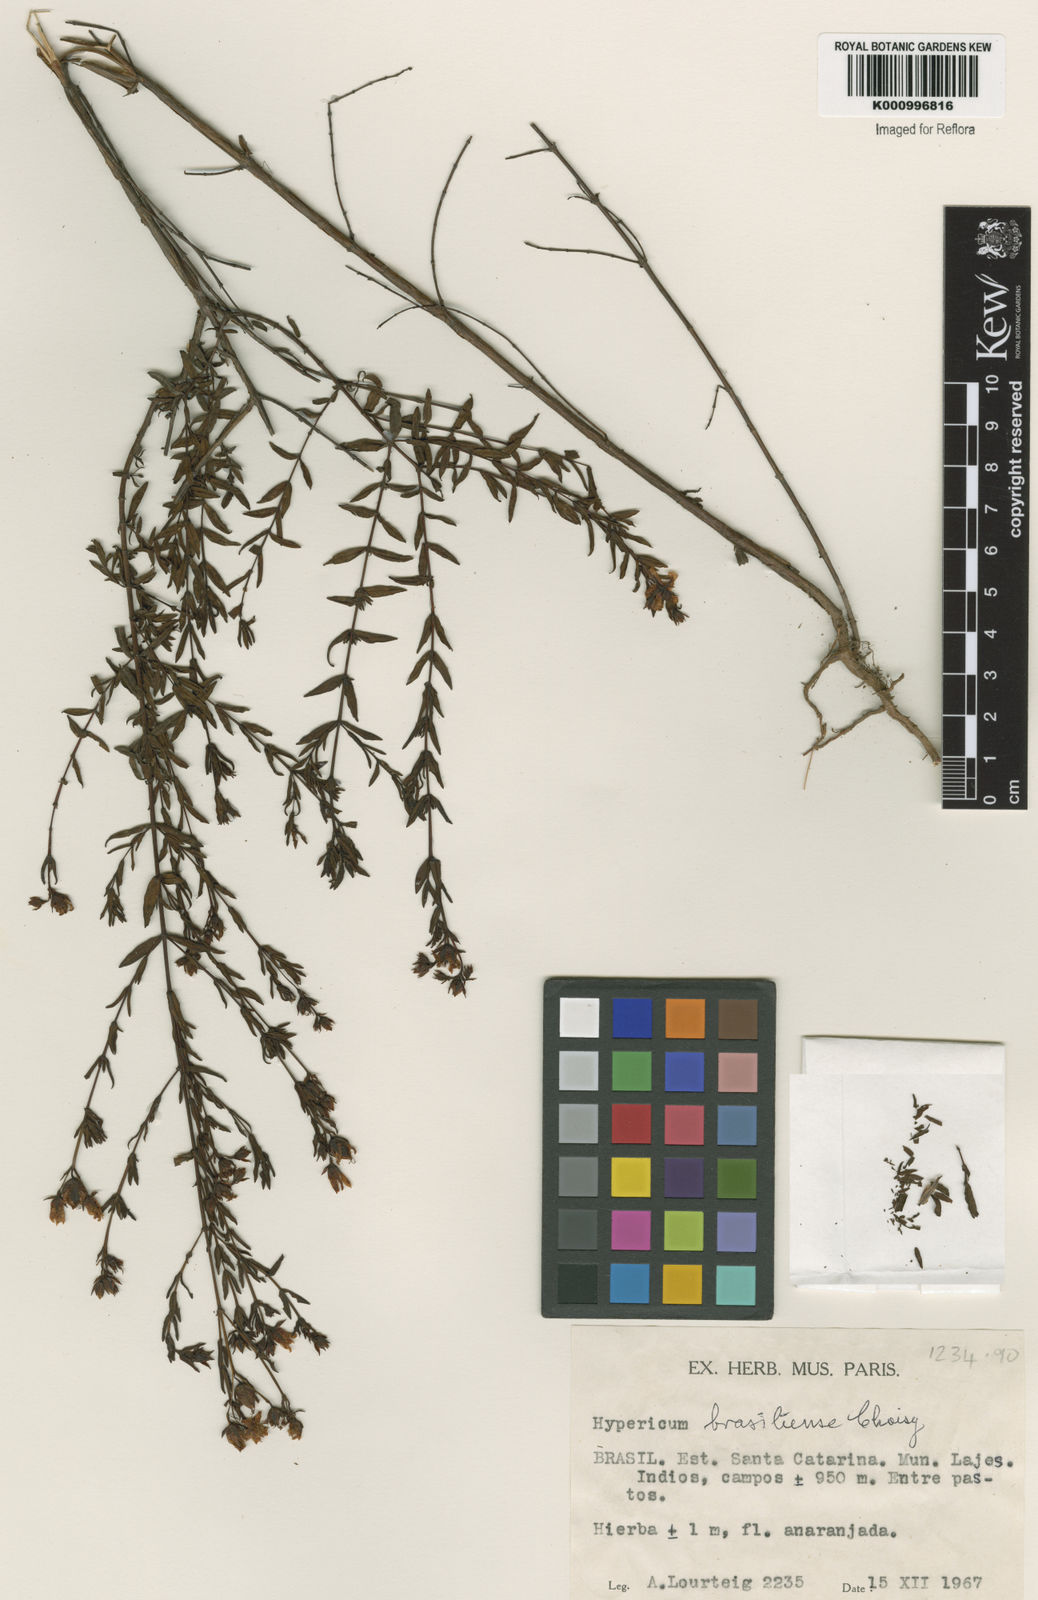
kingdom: Plantae
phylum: Tracheophyta
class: Magnoliopsida
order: Malpighiales
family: Hypericaceae
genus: Hypericum
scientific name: Hypericum brasiliense
